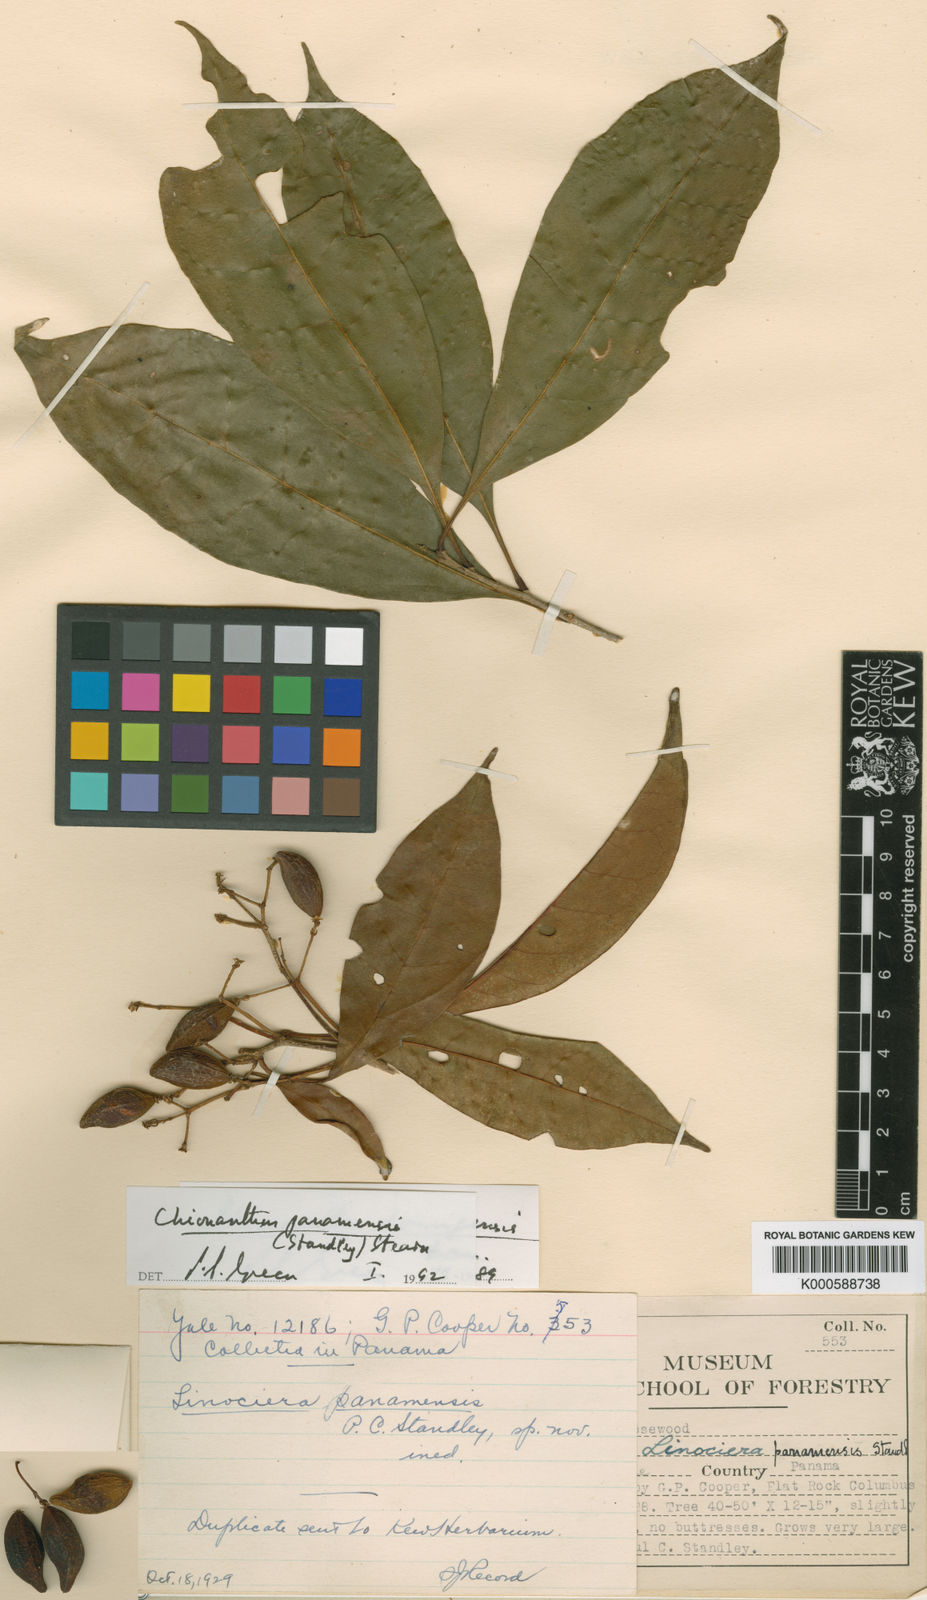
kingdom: Plantae
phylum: Tracheophyta
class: Magnoliopsida
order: Lamiales
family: Oleaceae
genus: Chionanthus
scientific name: Chionanthus panamensis
